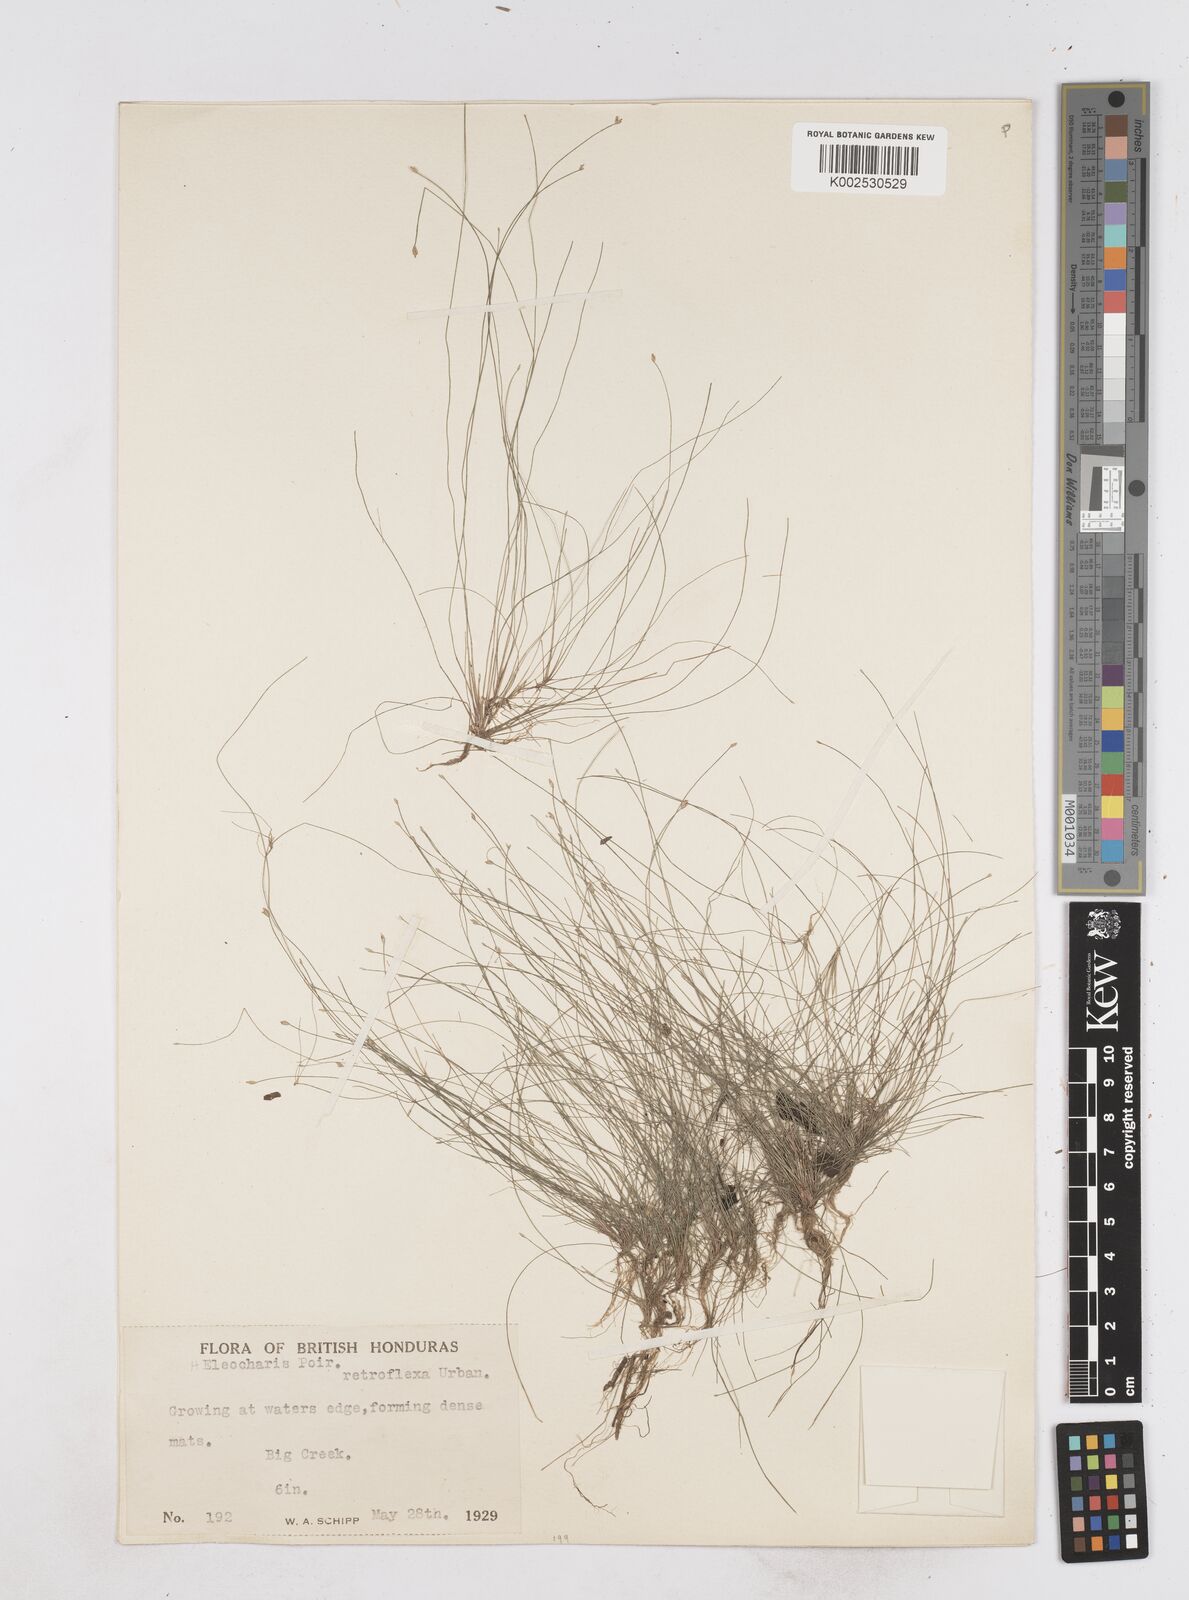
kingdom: Plantae
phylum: Tracheophyta
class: Liliopsida
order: Poales
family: Cyperaceae
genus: Eleocharis
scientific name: Eleocharis retroflexa
